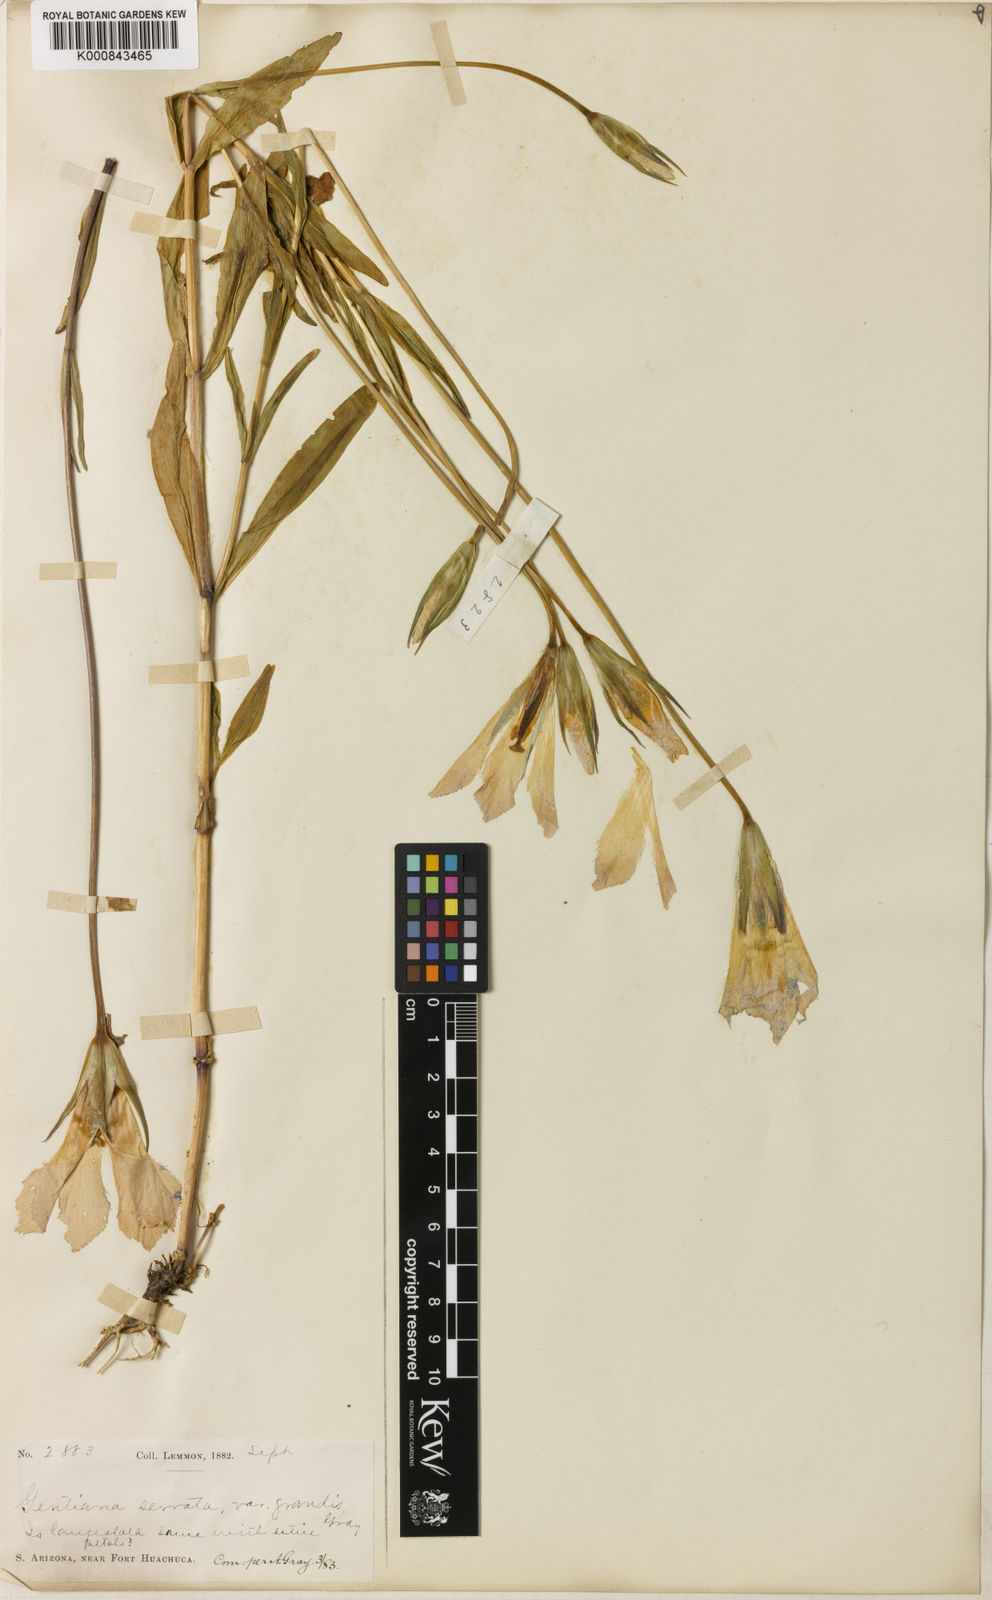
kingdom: Plantae
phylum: Tracheophyta
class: Magnoliopsida
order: Gentianales
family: Gentianaceae
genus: Gentianopsis
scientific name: Gentianopsis macrantha
